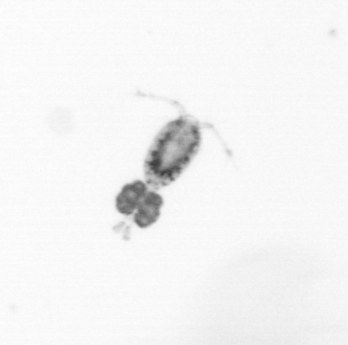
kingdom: Animalia
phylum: Arthropoda
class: Copepoda
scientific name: Copepoda
